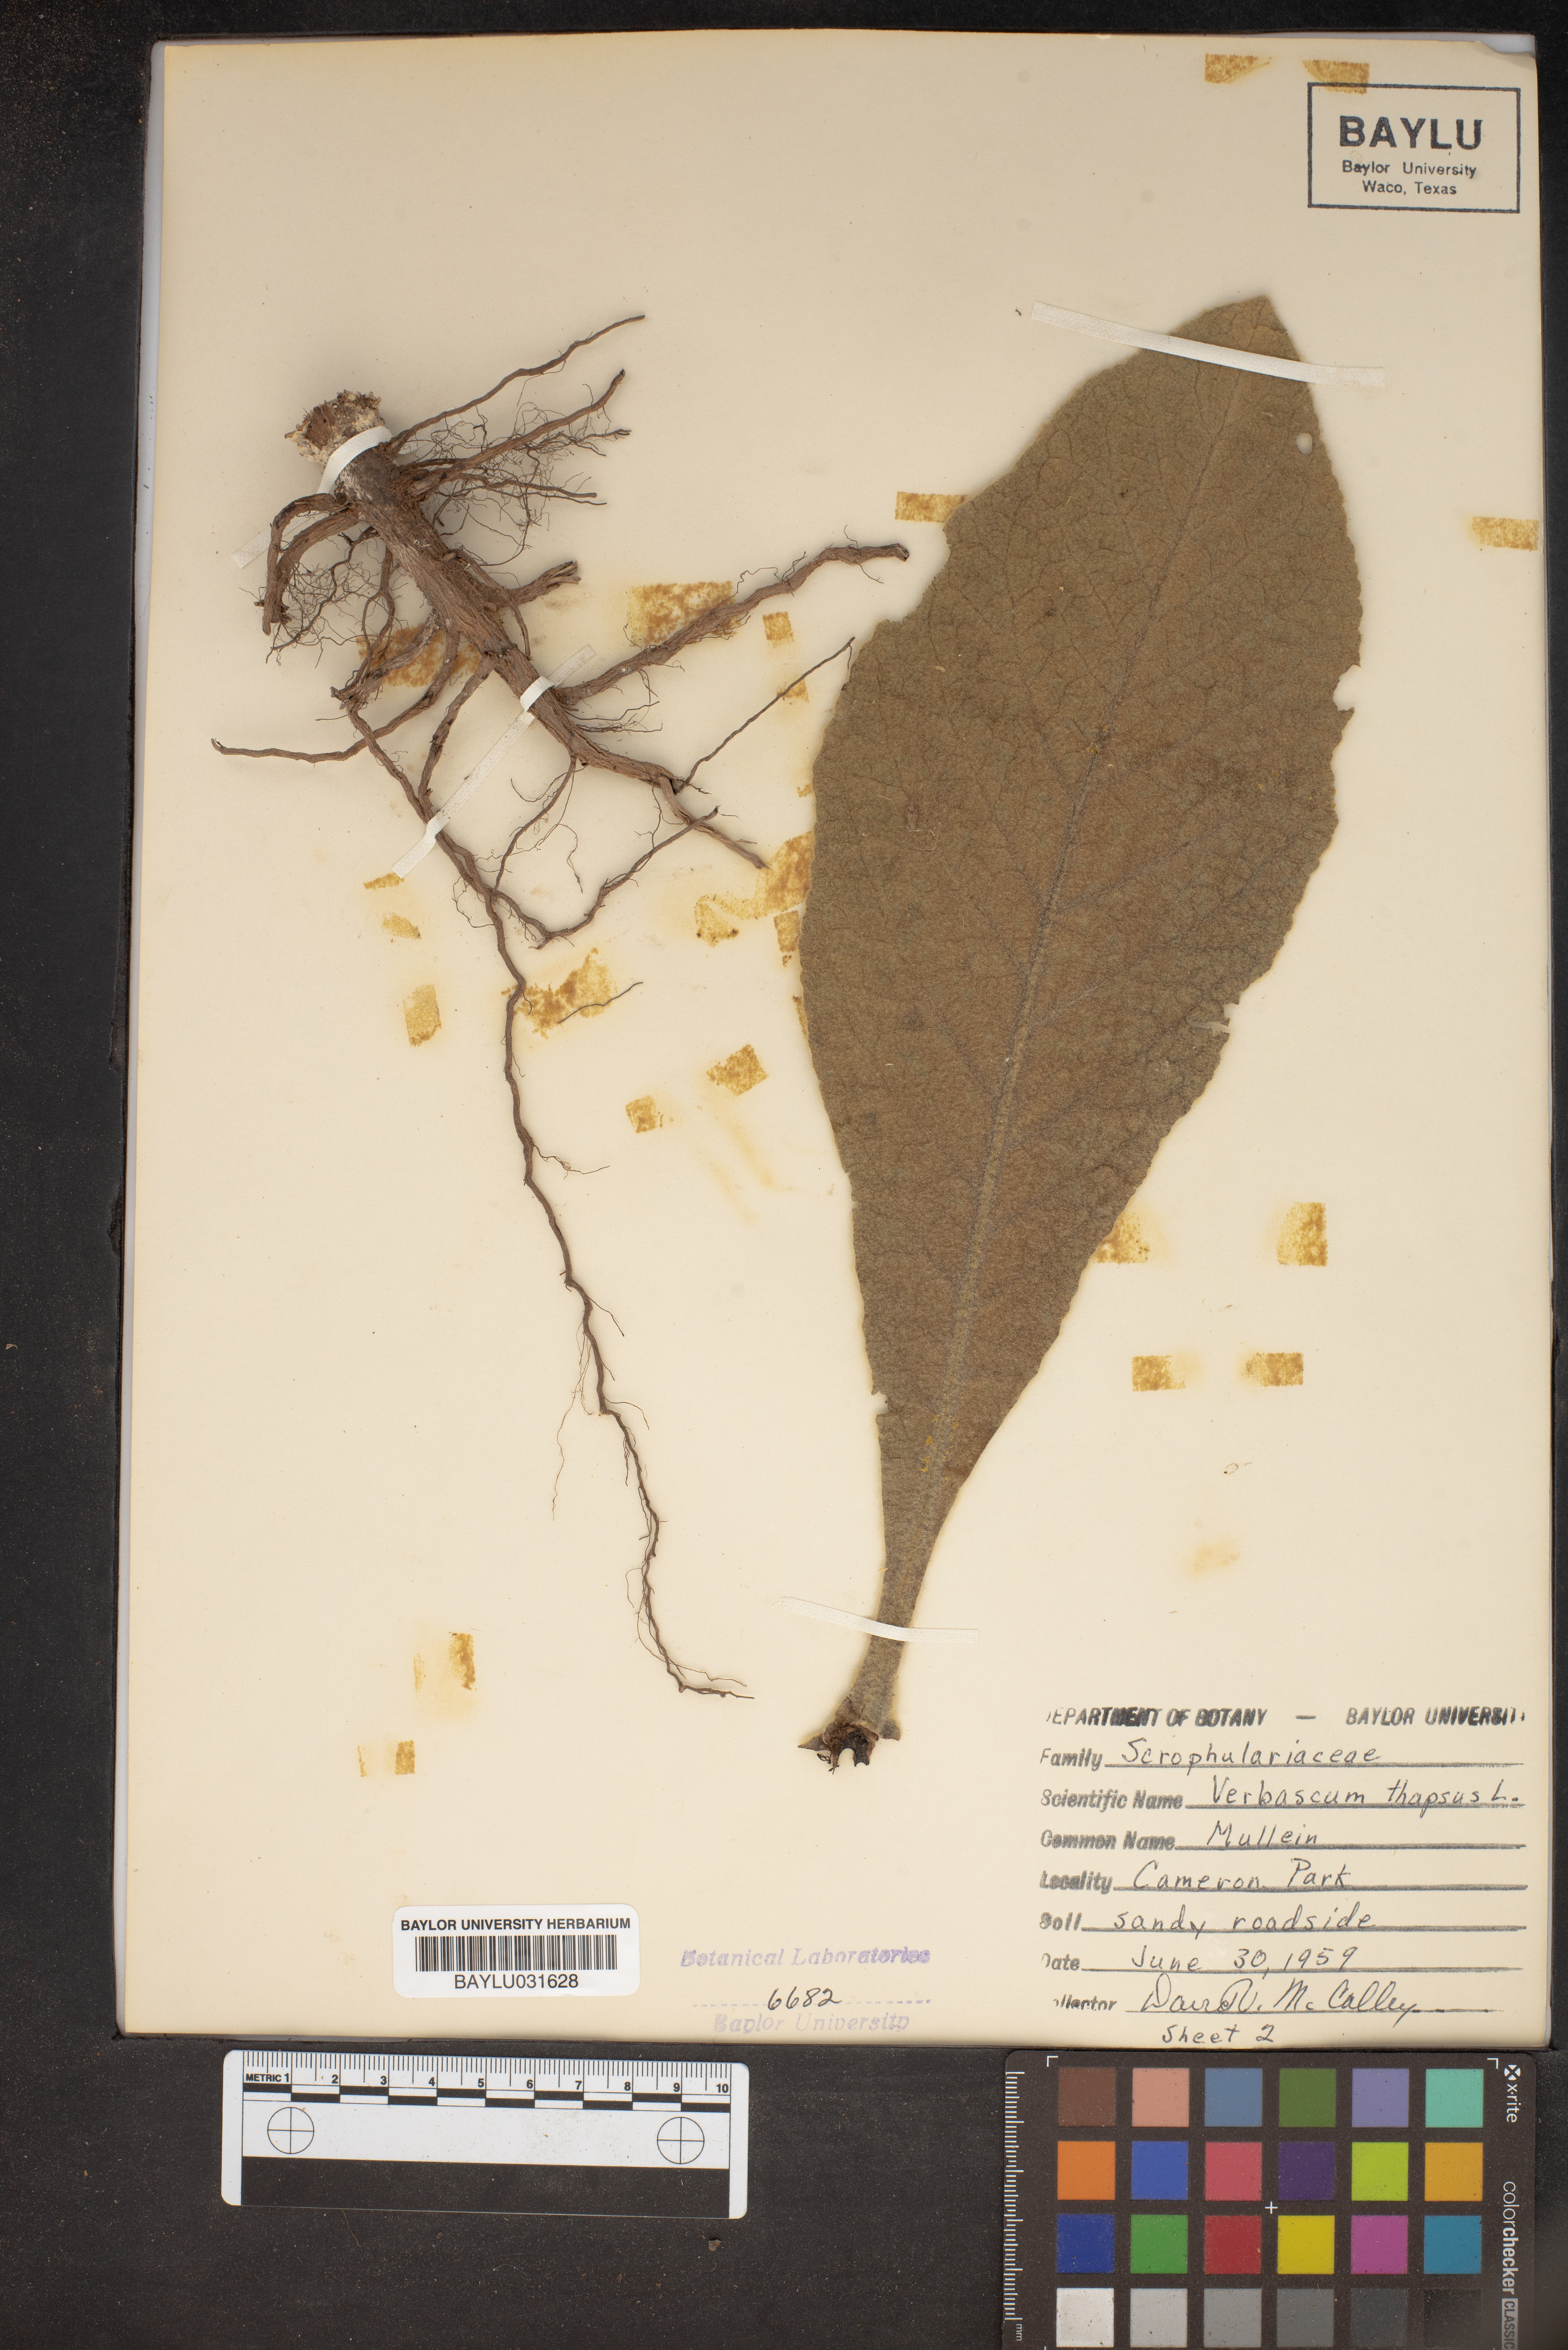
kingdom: Plantae
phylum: Tracheophyta
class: Magnoliopsida
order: Lamiales
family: Scrophulariaceae
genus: Verbascum
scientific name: Verbascum thapsus
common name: Common mullein
